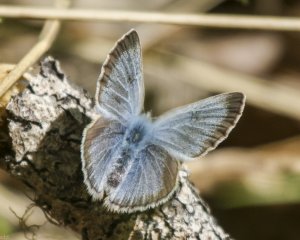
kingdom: Animalia
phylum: Arthropoda
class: Insecta
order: Lepidoptera
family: Lycaenidae
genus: Glaucopsyche
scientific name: Glaucopsyche lygdamus
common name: Silvery Blue
